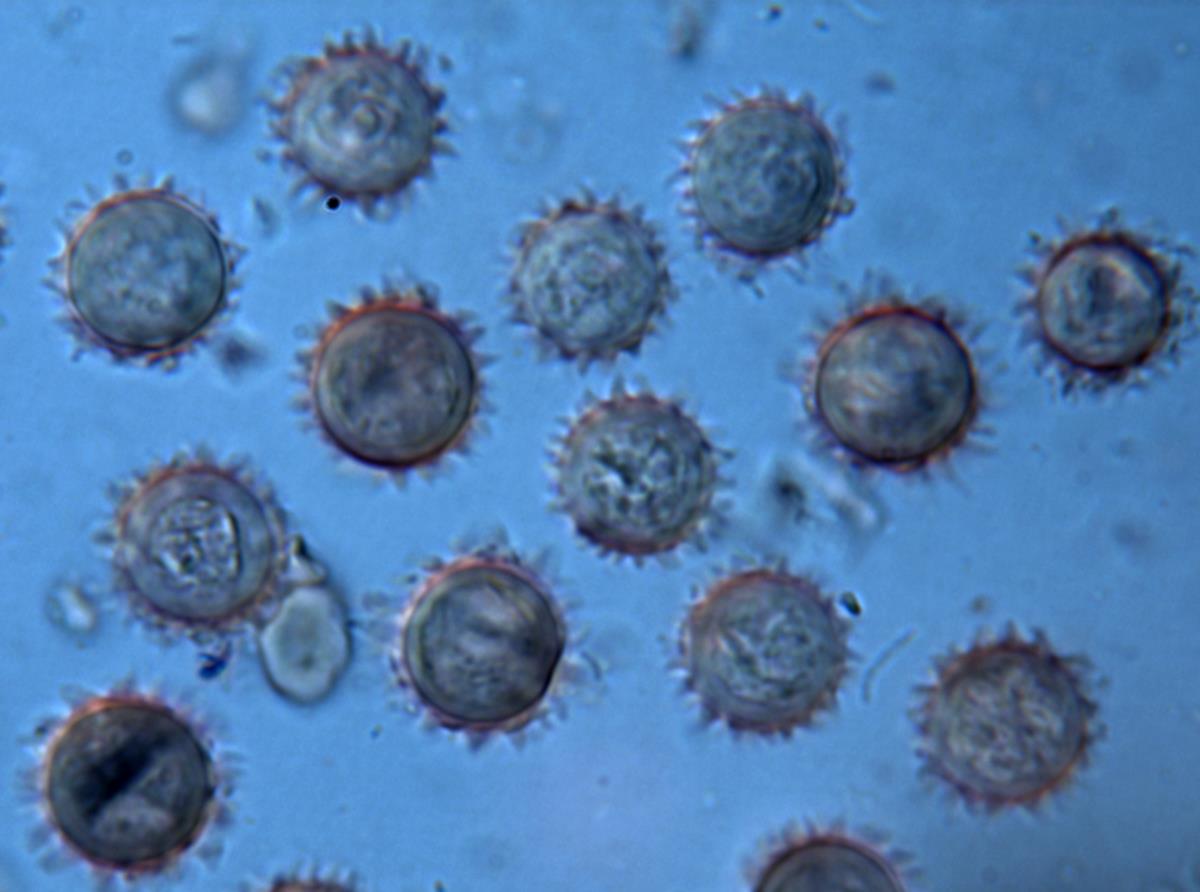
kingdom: Fungi
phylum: Basidiomycota
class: Agaricomycetes
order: Agaricales
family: Hydnangiaceae
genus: Hydnangium
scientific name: Hydnangium kanuka
